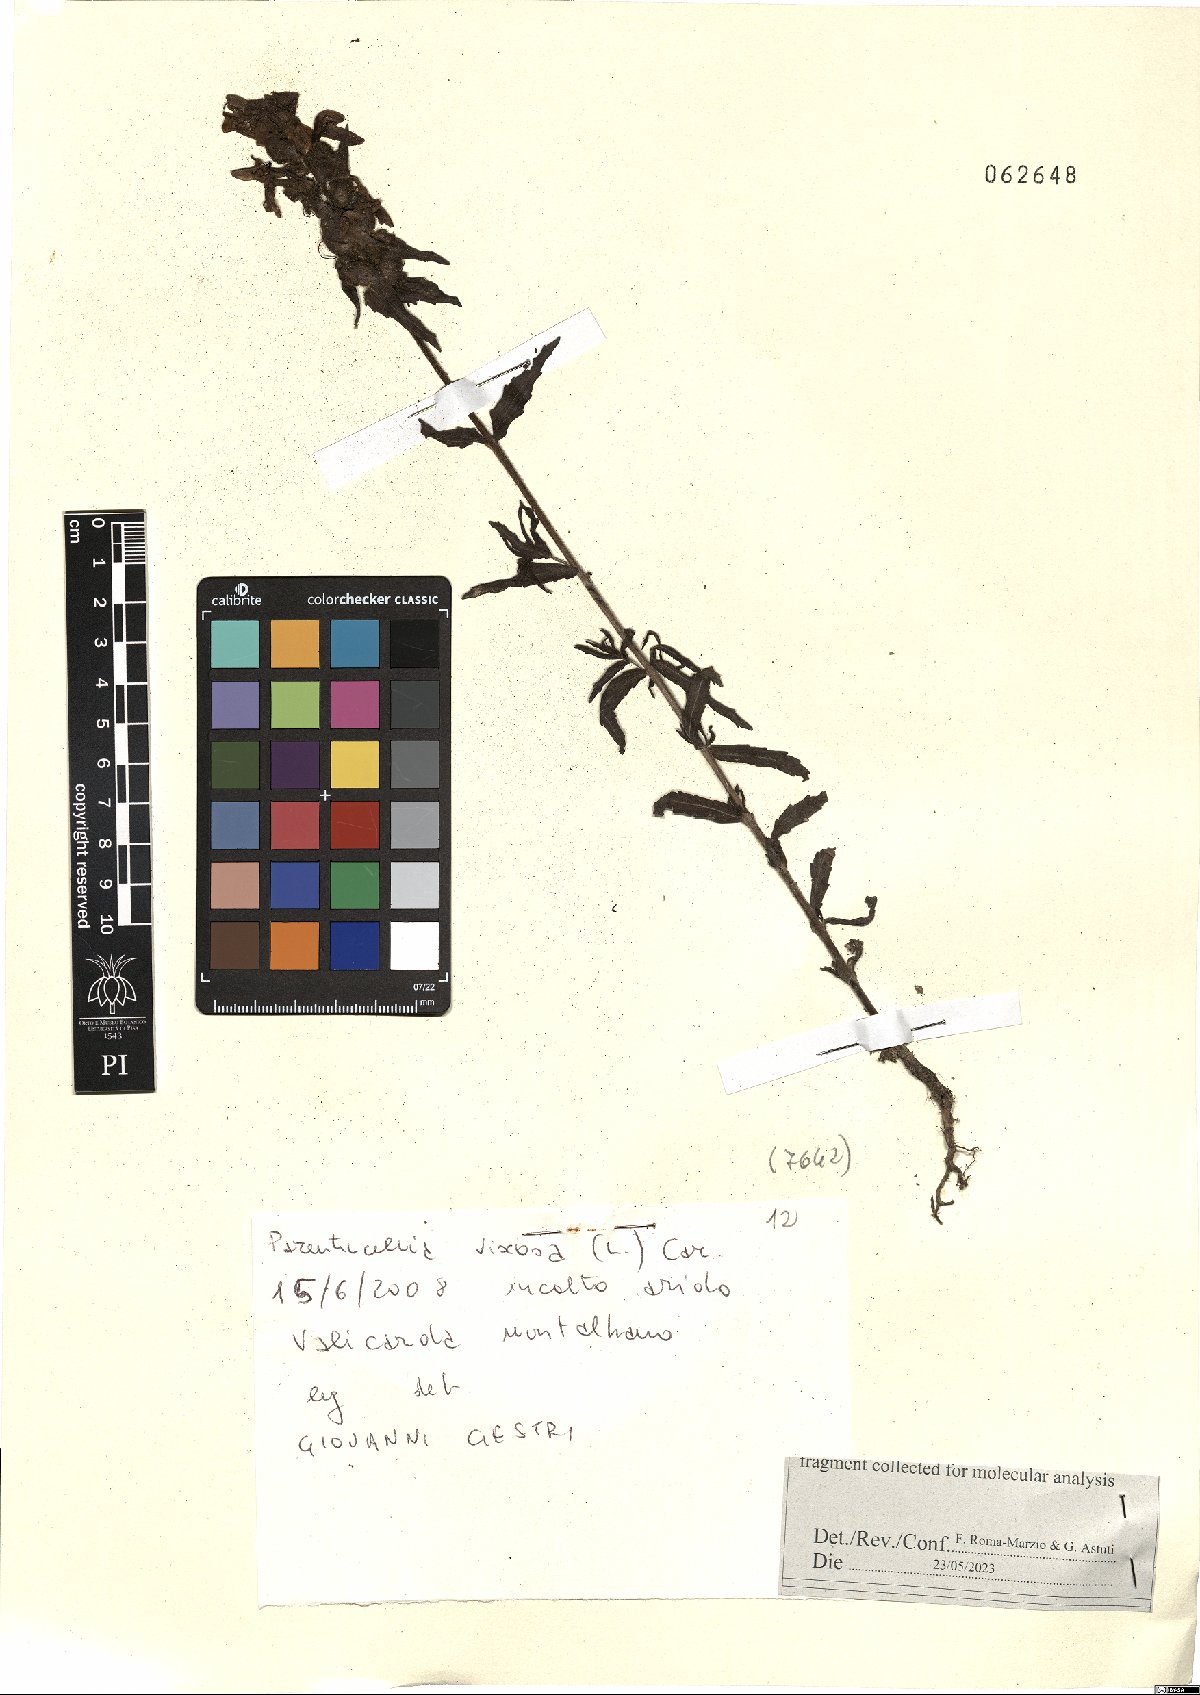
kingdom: Plantae
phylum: Tracheophyta
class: Magnoliopsida
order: Lamiales
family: Orobanchaceae
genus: Bellardia
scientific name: Bellardia viscosa
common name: Sticky parentucellia
